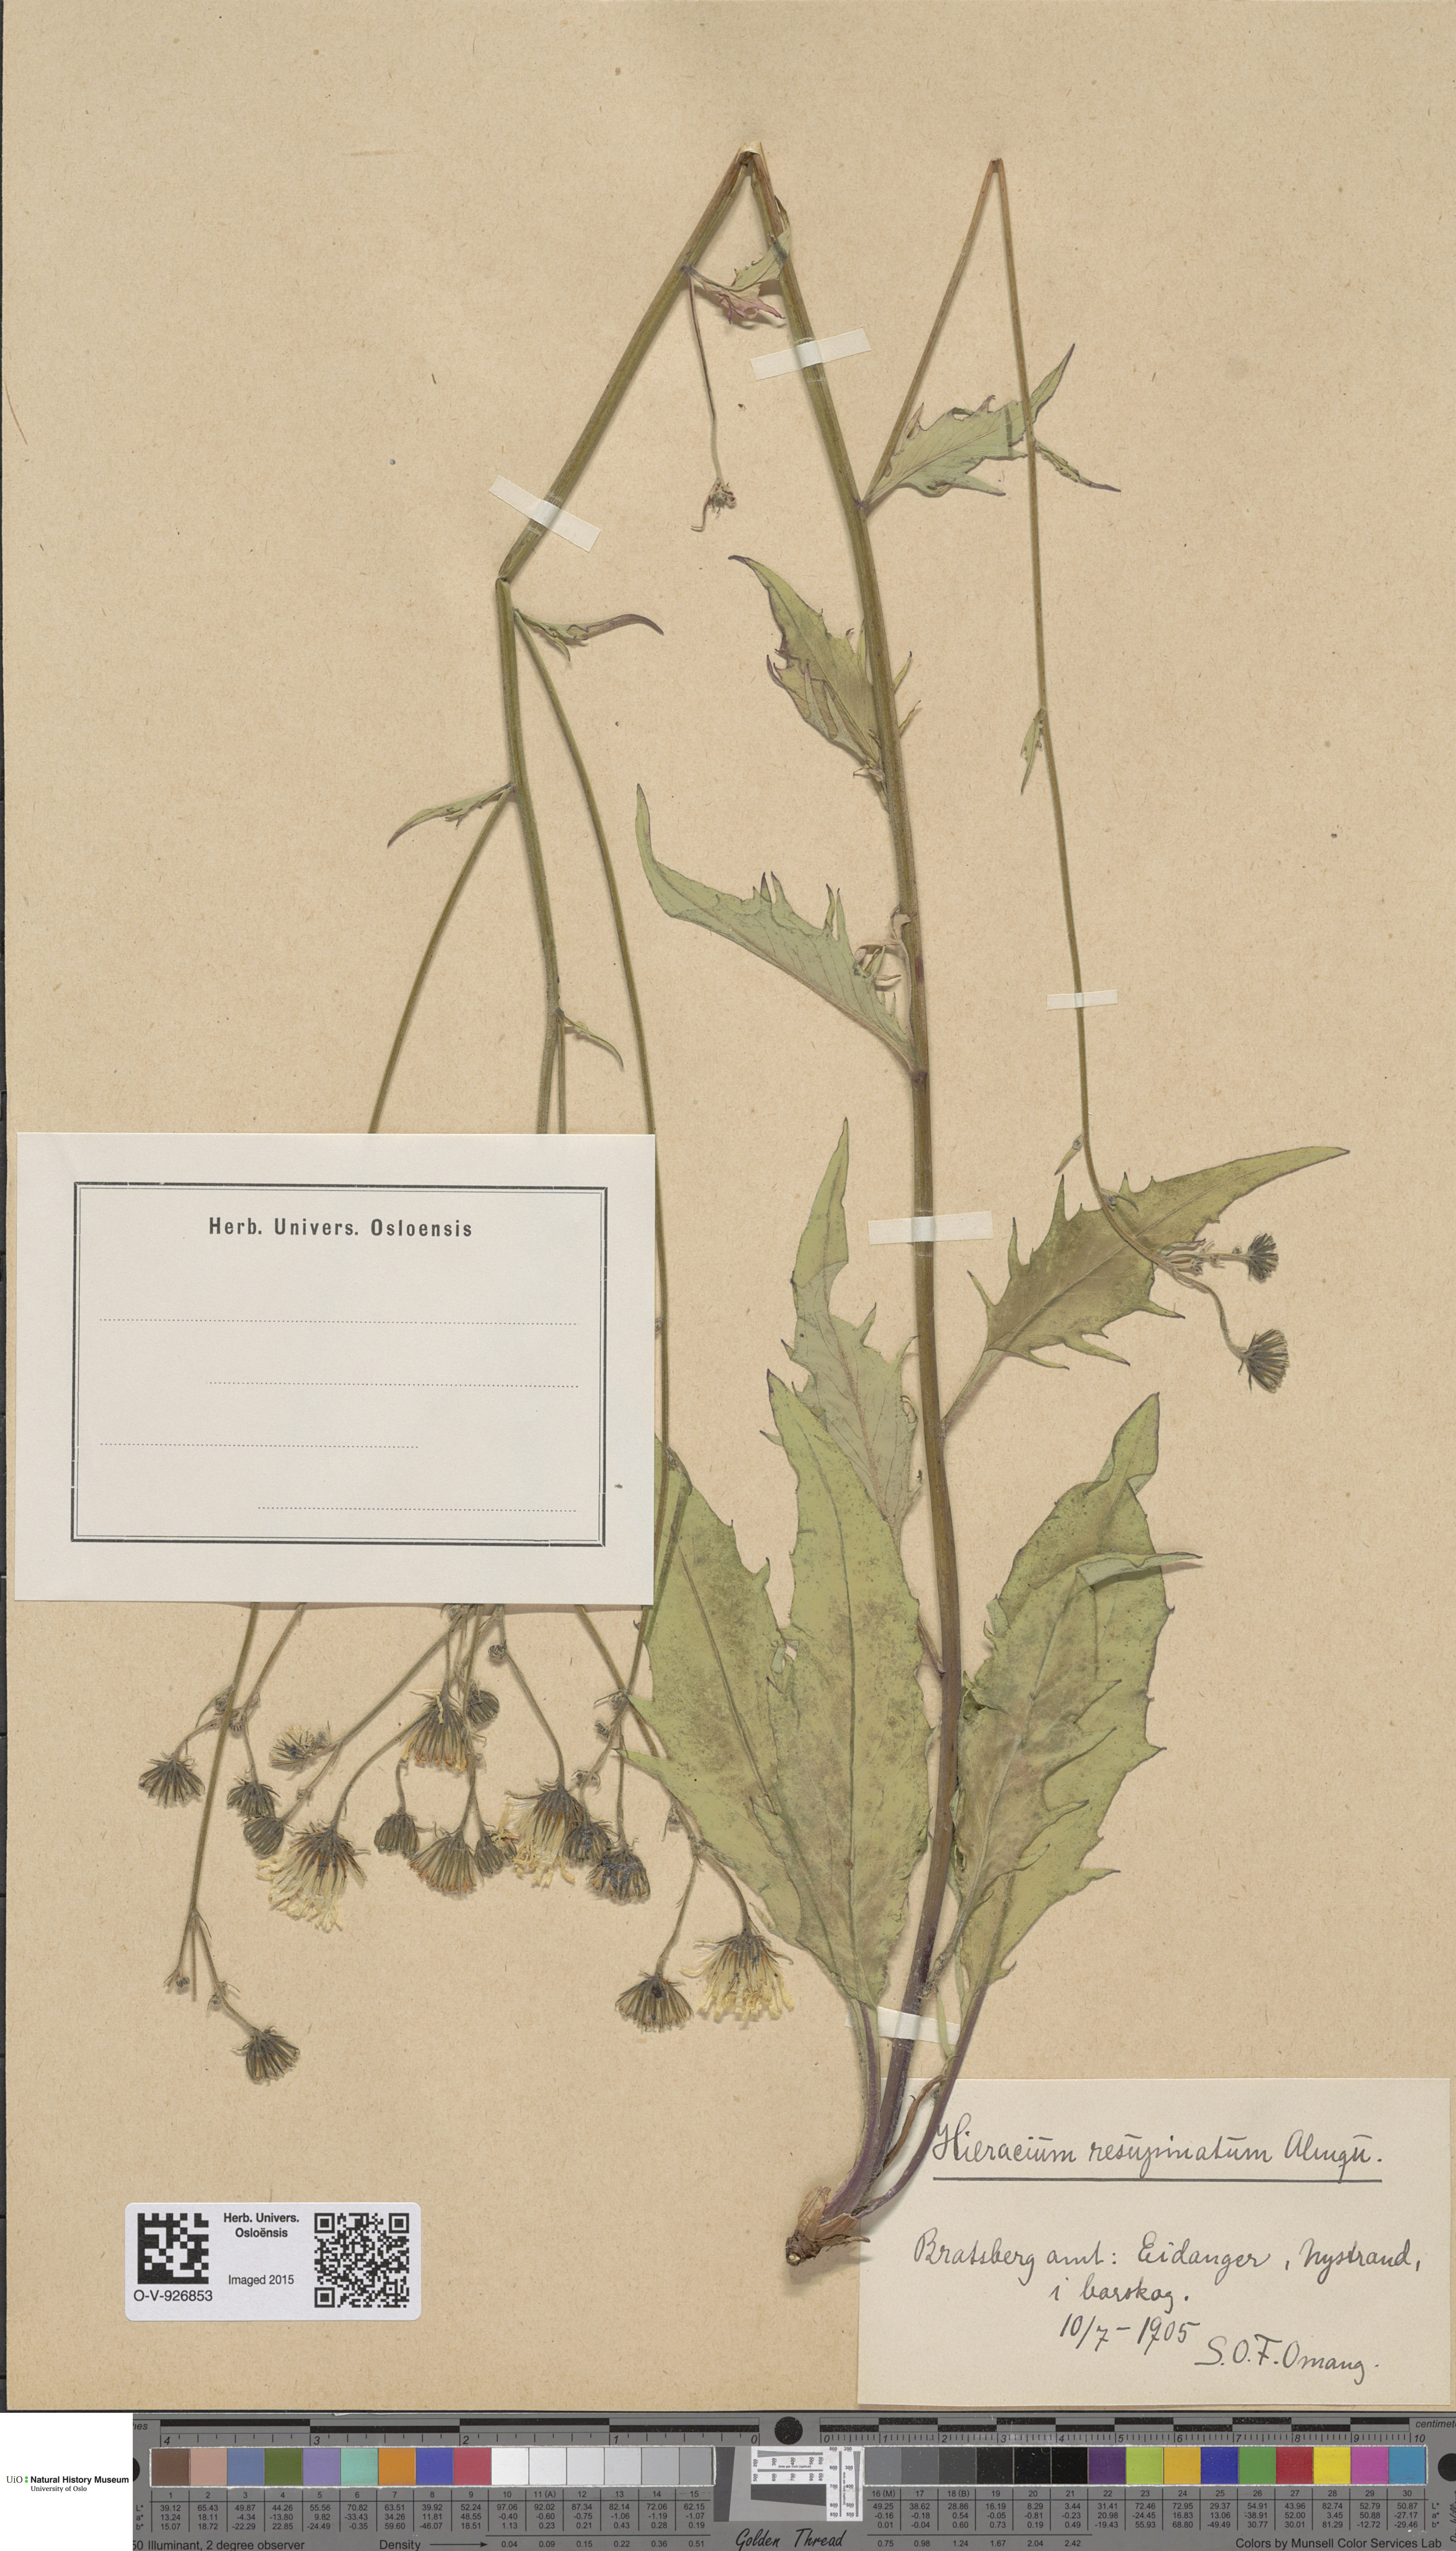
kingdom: Plantae
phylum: Tracheophyta
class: Magnoliopsida
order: Asterales
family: Asteraceae
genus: Hieracium
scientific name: Hieracium resupinatum
